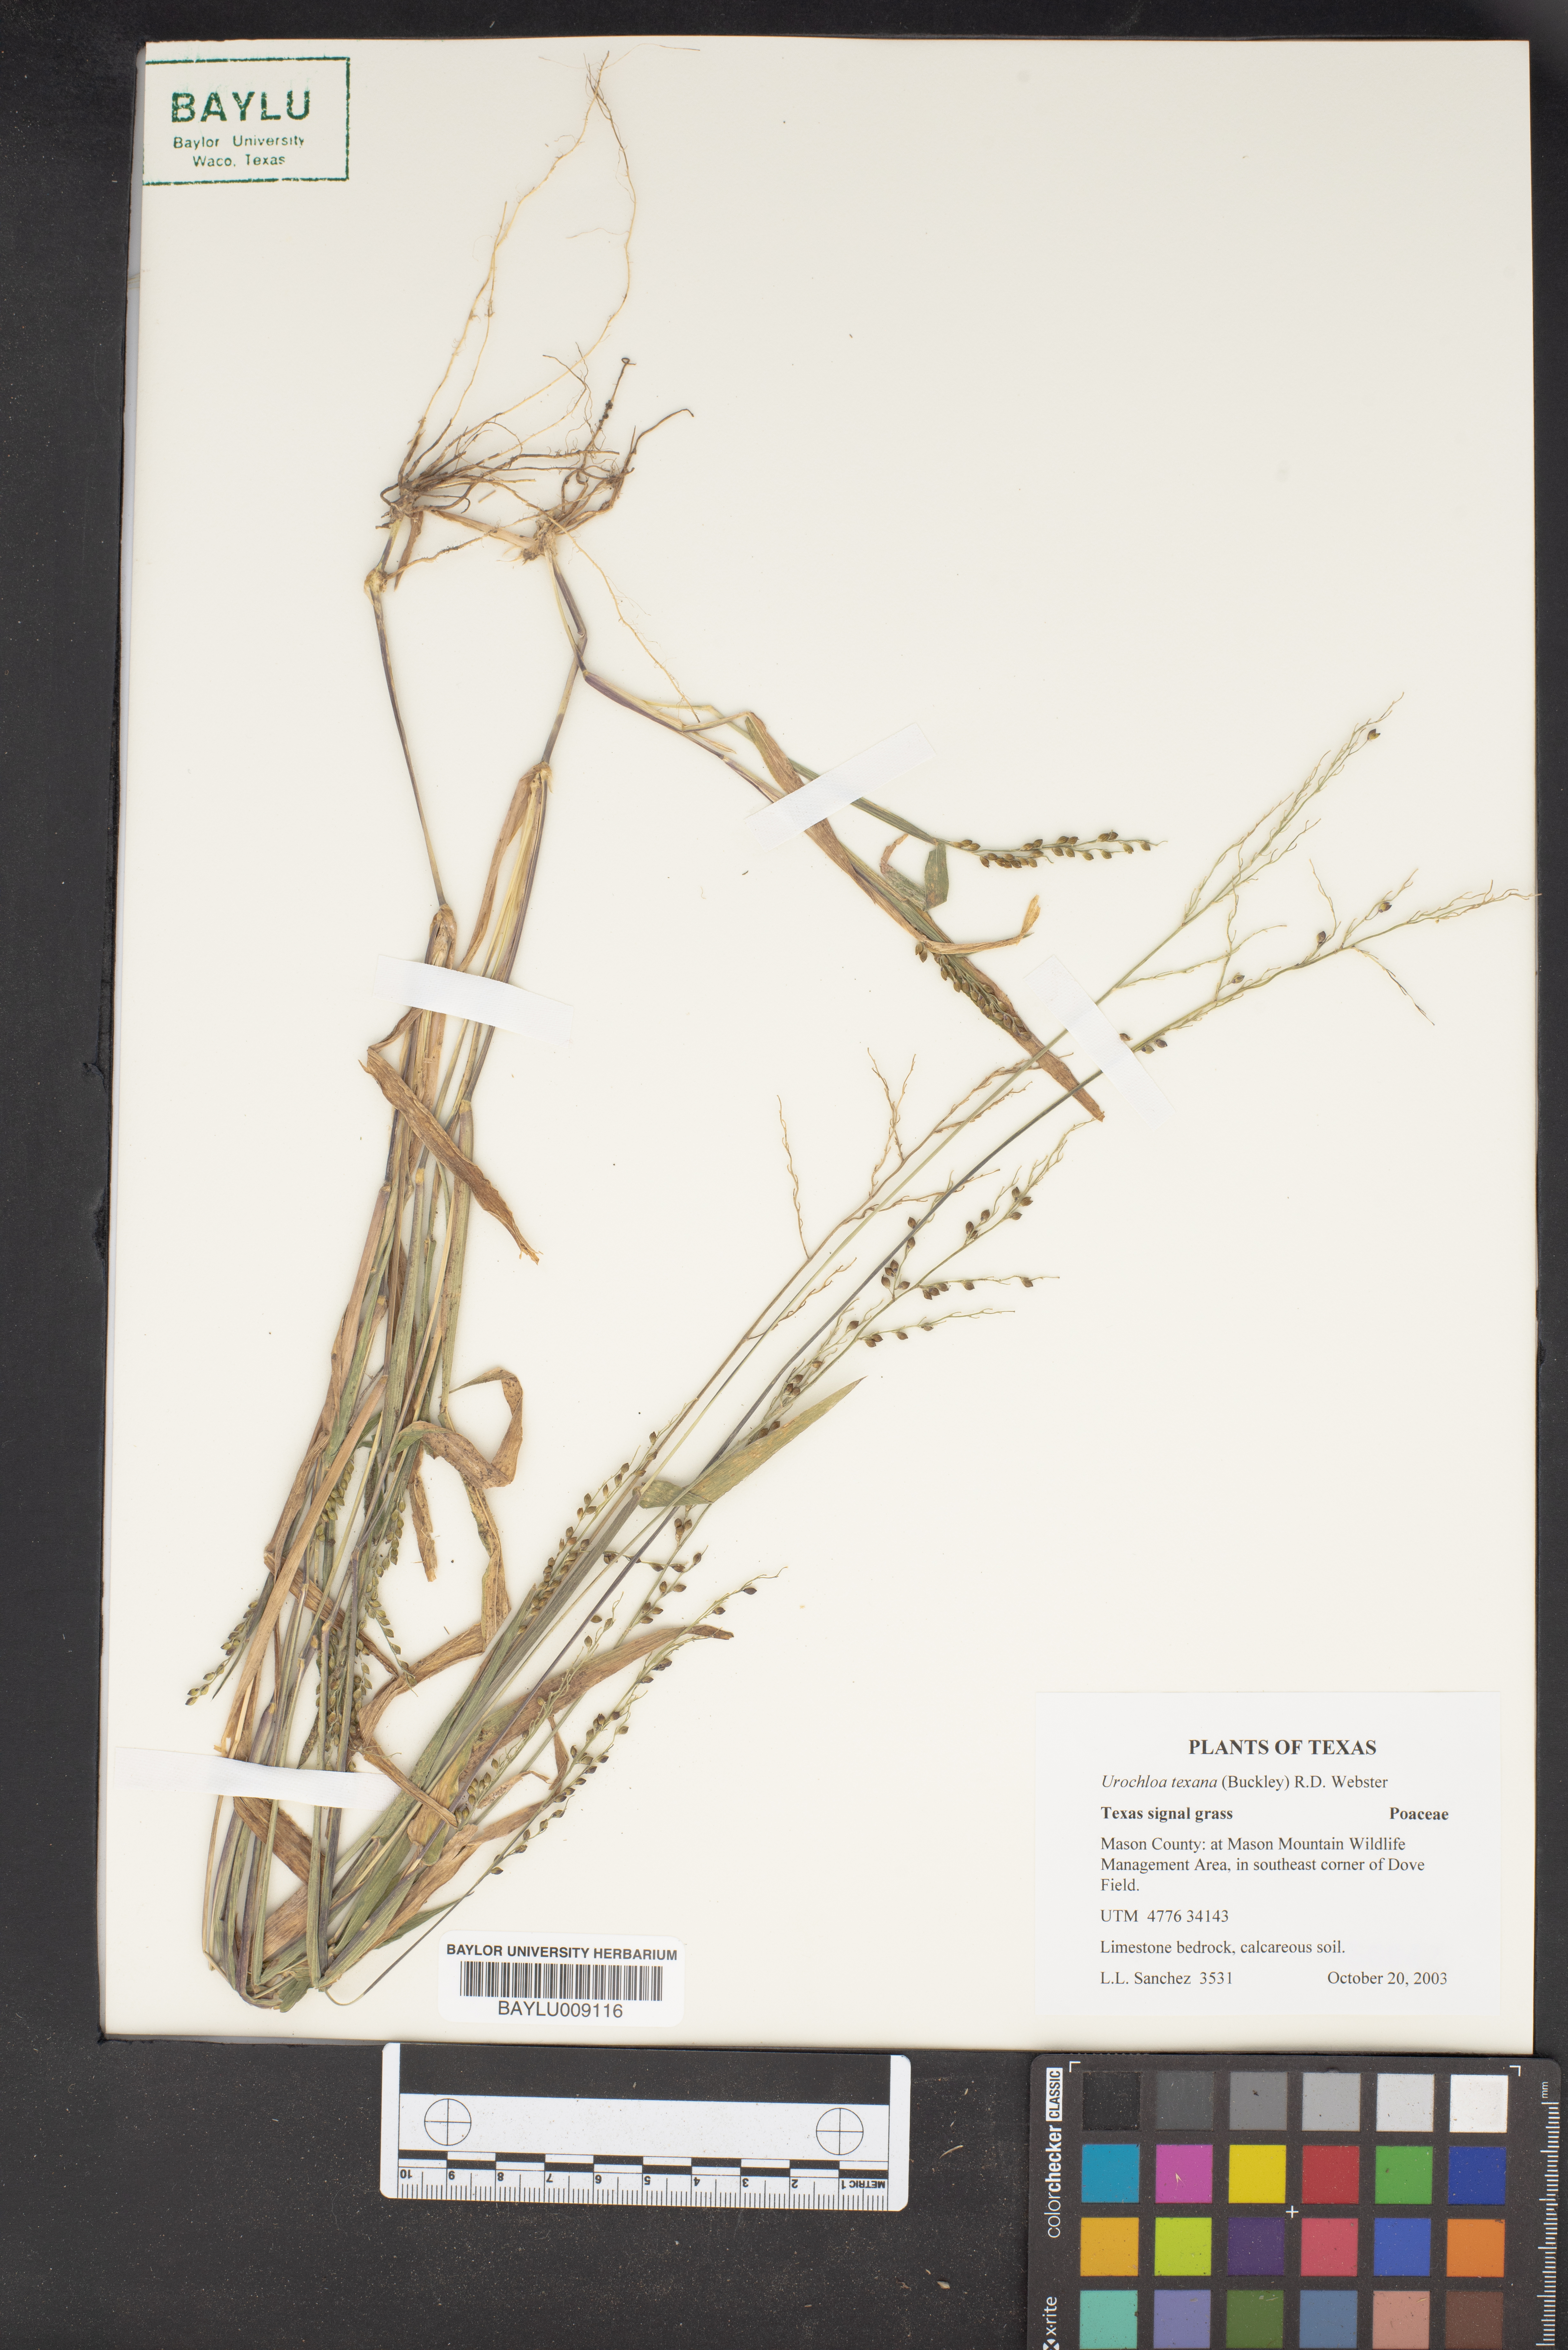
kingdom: Plantae
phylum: Tracheophyta
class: Liliopsida
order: Poales
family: Poaceae
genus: Urochloa
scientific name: Urochloa texana
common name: Texas millet
